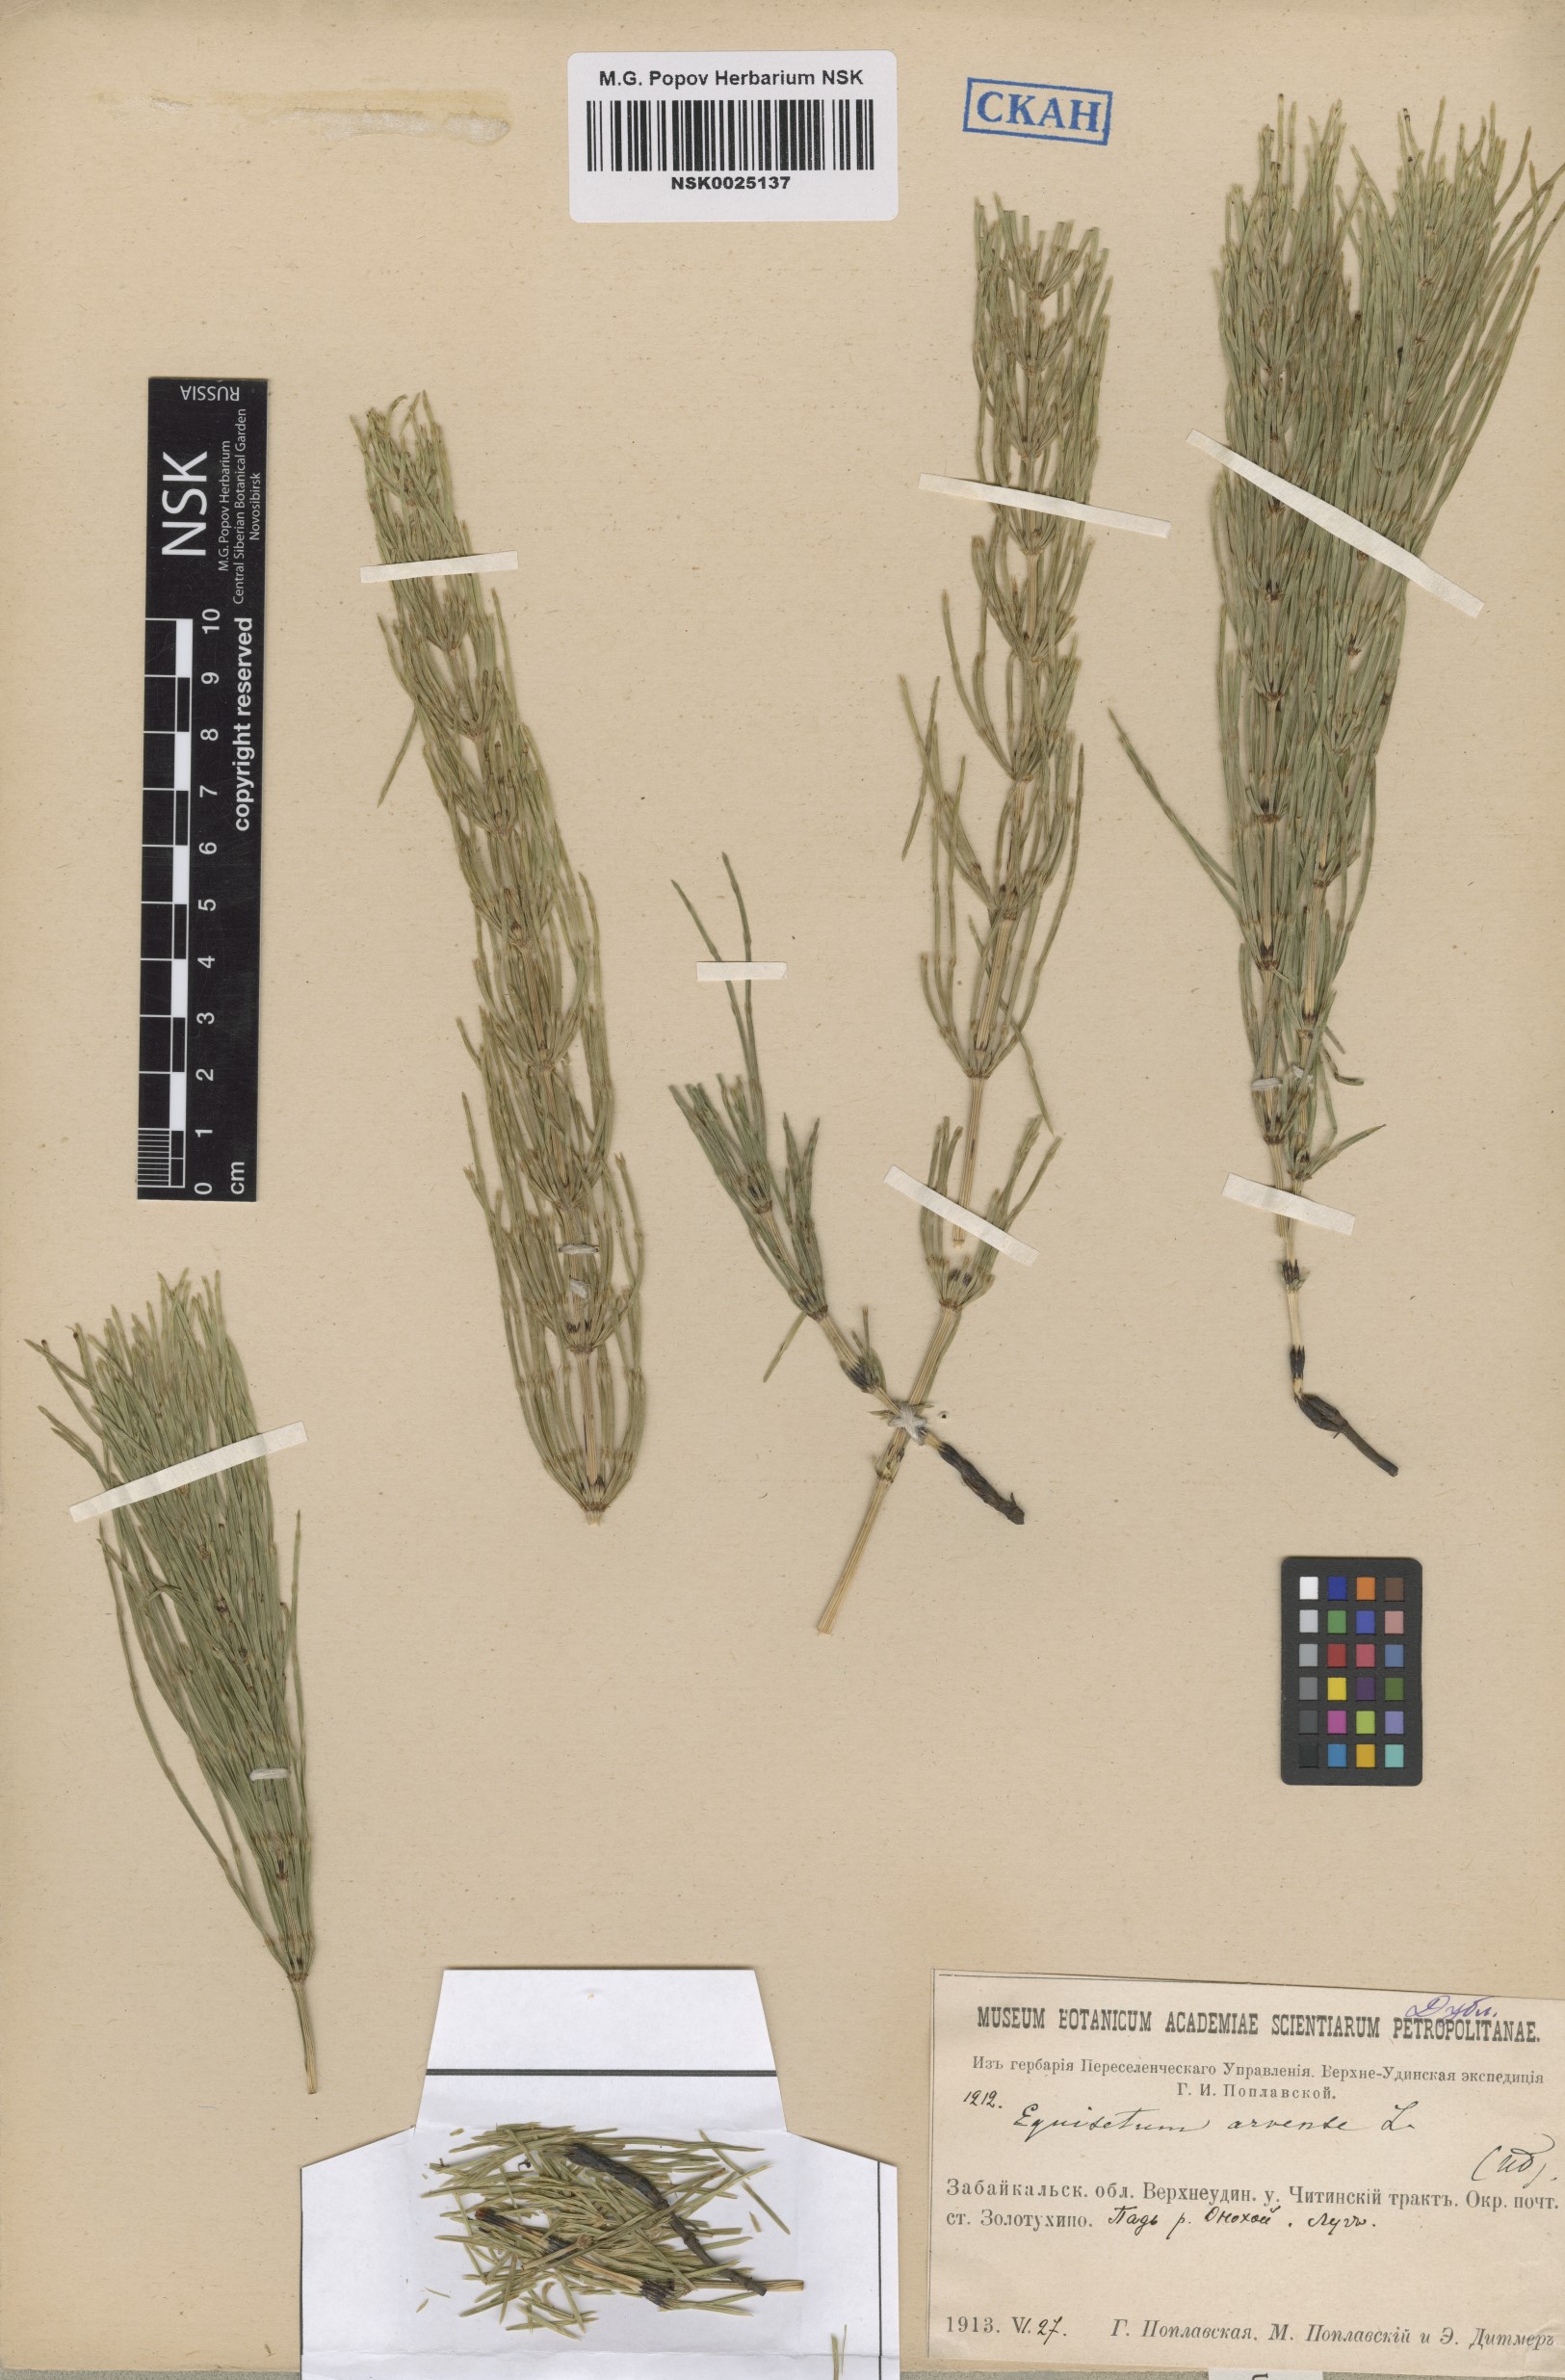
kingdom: Plantae
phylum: Tracheophyta
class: Polypodiopsida
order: Equisetales
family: Equisetaceae
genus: Equisetum
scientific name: Equisetum arvense
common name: Field horsetail
